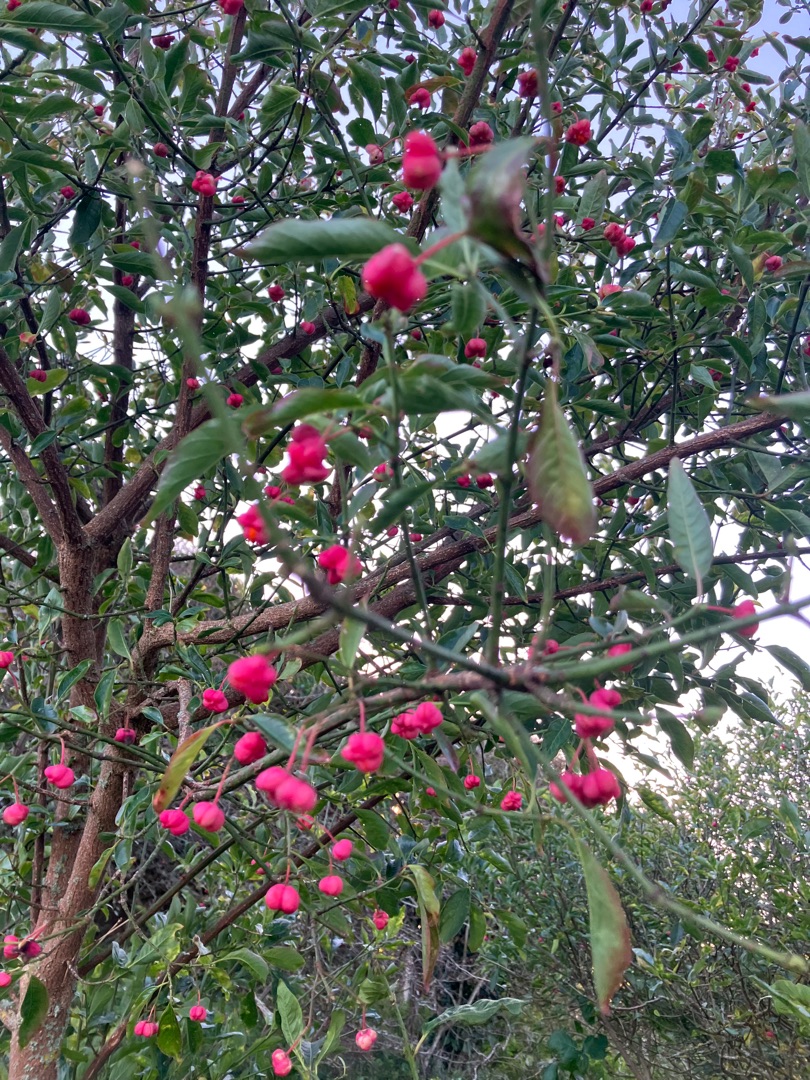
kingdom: Plantae
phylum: Tracheophyta
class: Magnoliopsida
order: Celastrales
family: Celastraceae
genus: Euonymus
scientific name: Euonymus europaeus
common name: Benved
